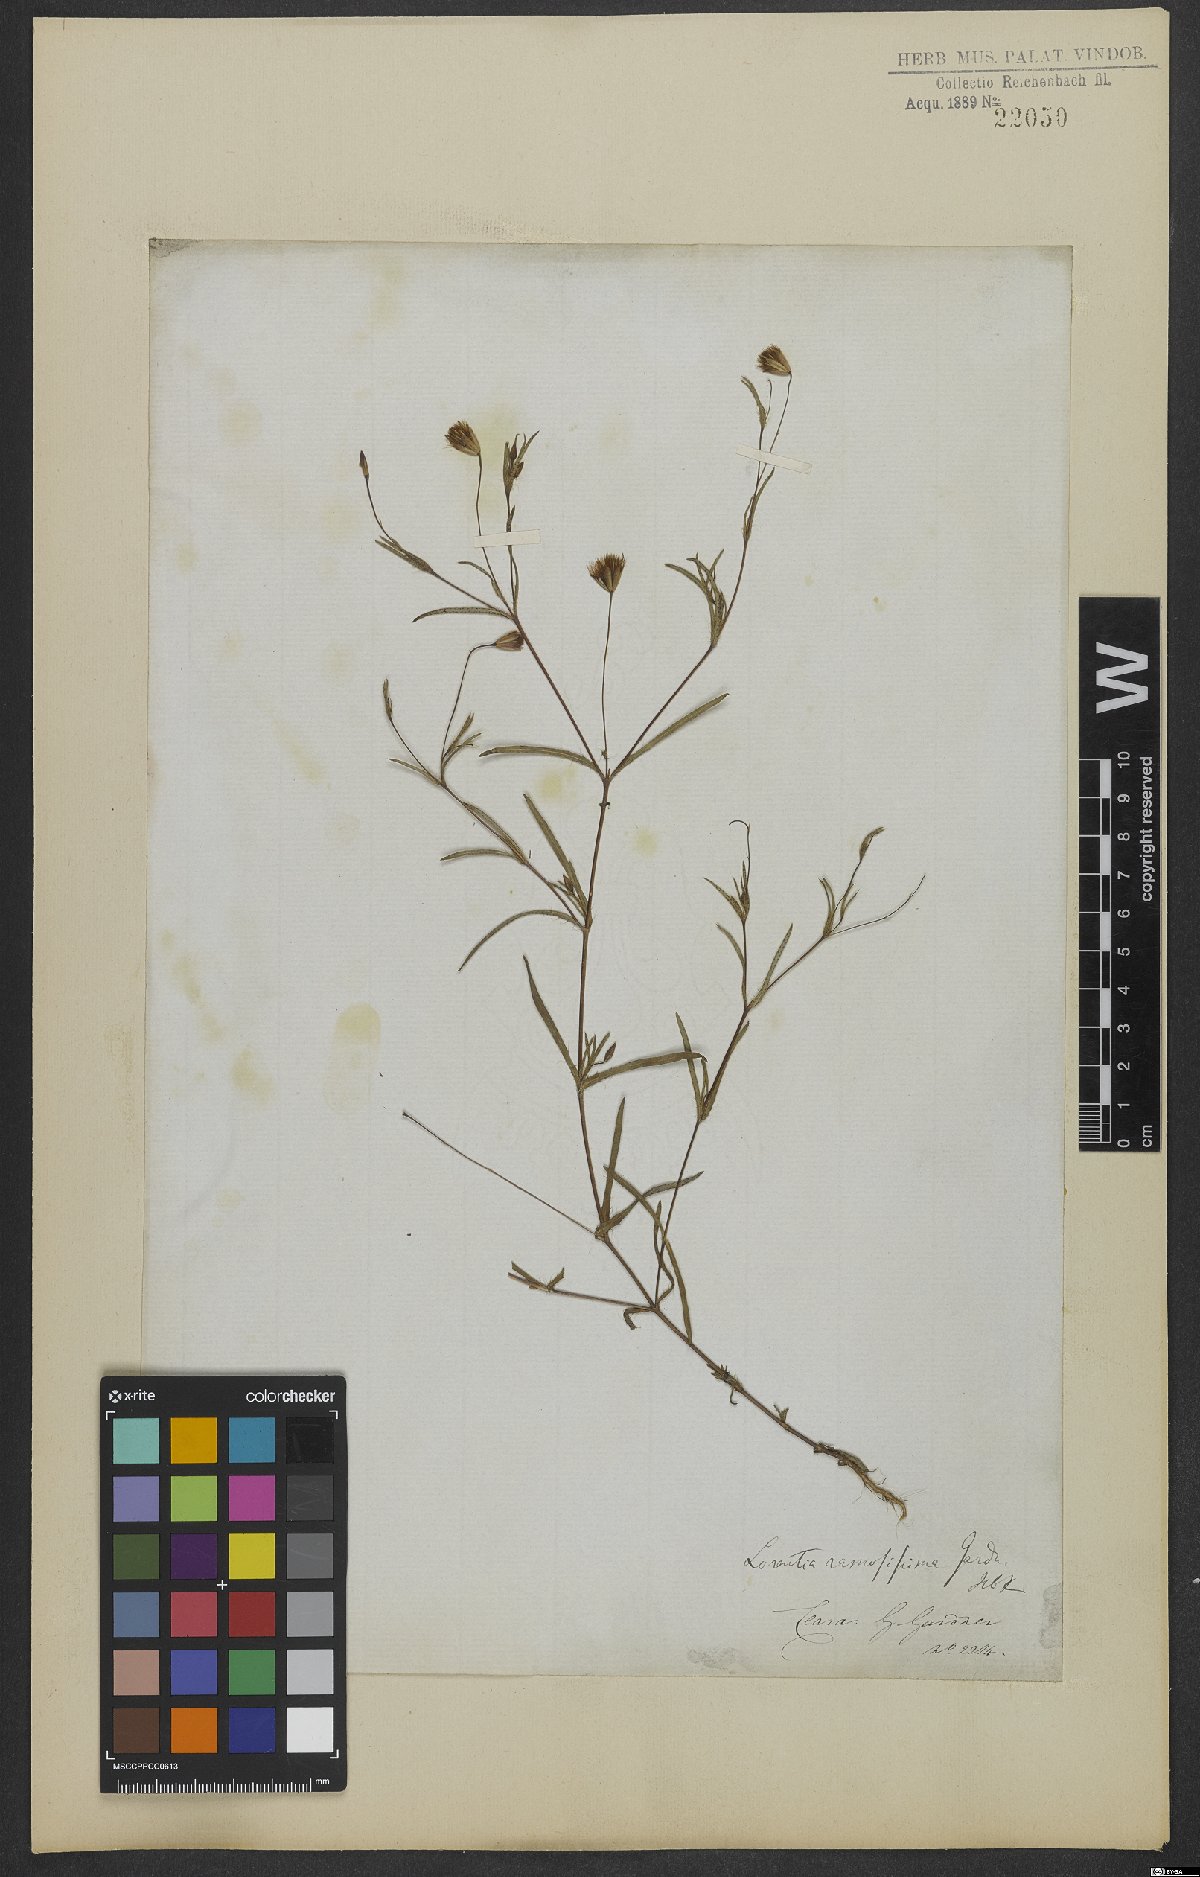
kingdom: Plantae
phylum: Tracheophyta
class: Magnoliopsida
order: Asterales
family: Asteraceae
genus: Pectis
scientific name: Pectis oligocephala
